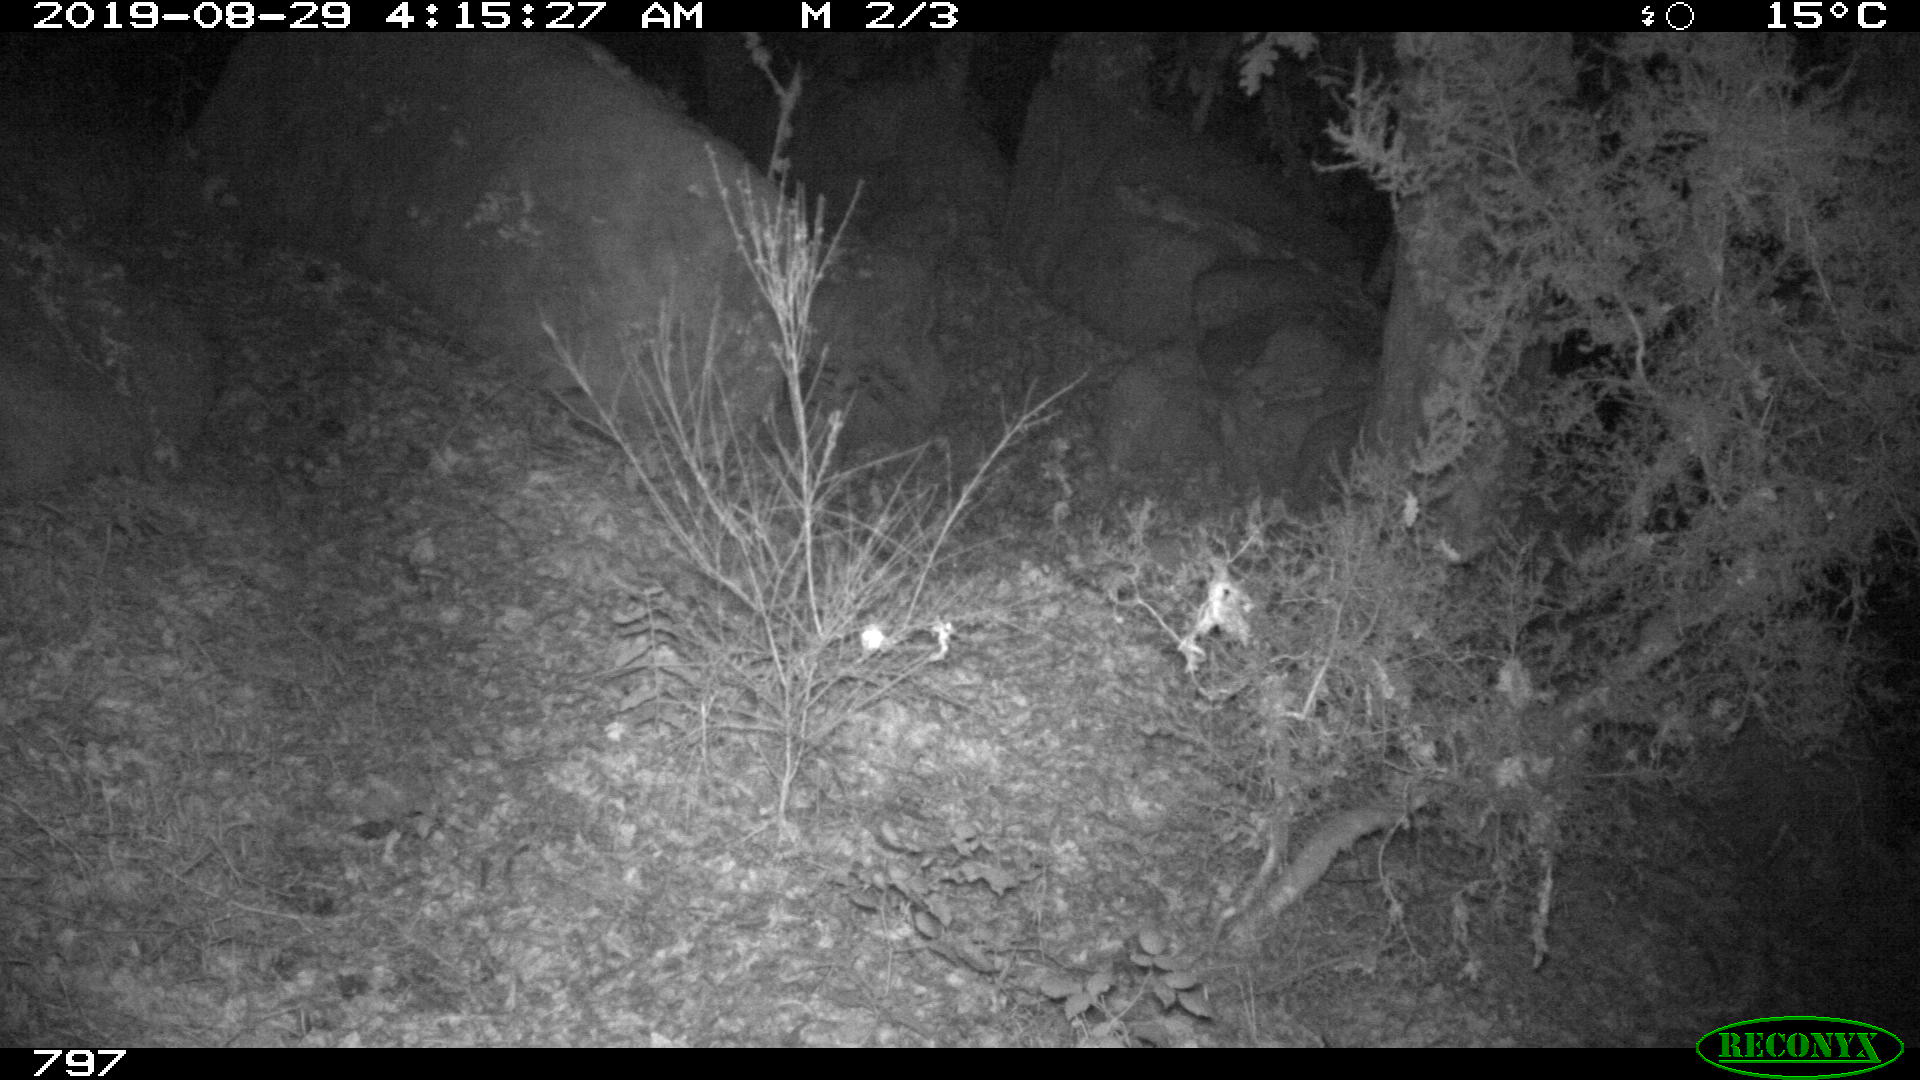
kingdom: Animalia
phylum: Chordata
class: Mammalia
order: Artiodactyla
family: Suidae
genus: Sus
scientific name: Sus scrofa
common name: Wild boar
